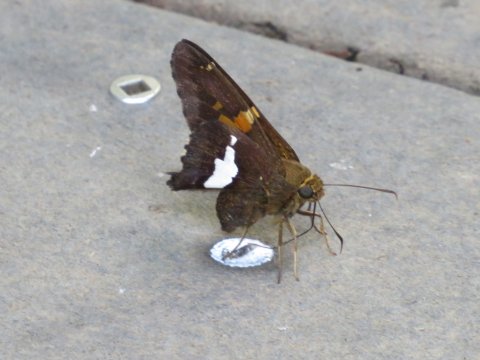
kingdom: Animalia
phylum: Arthropoda
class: Insecta
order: Lepidoptera
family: Hesperiidae
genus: Epargyreus
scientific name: Epargyreus clarus
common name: Silver-spotted Skipper
